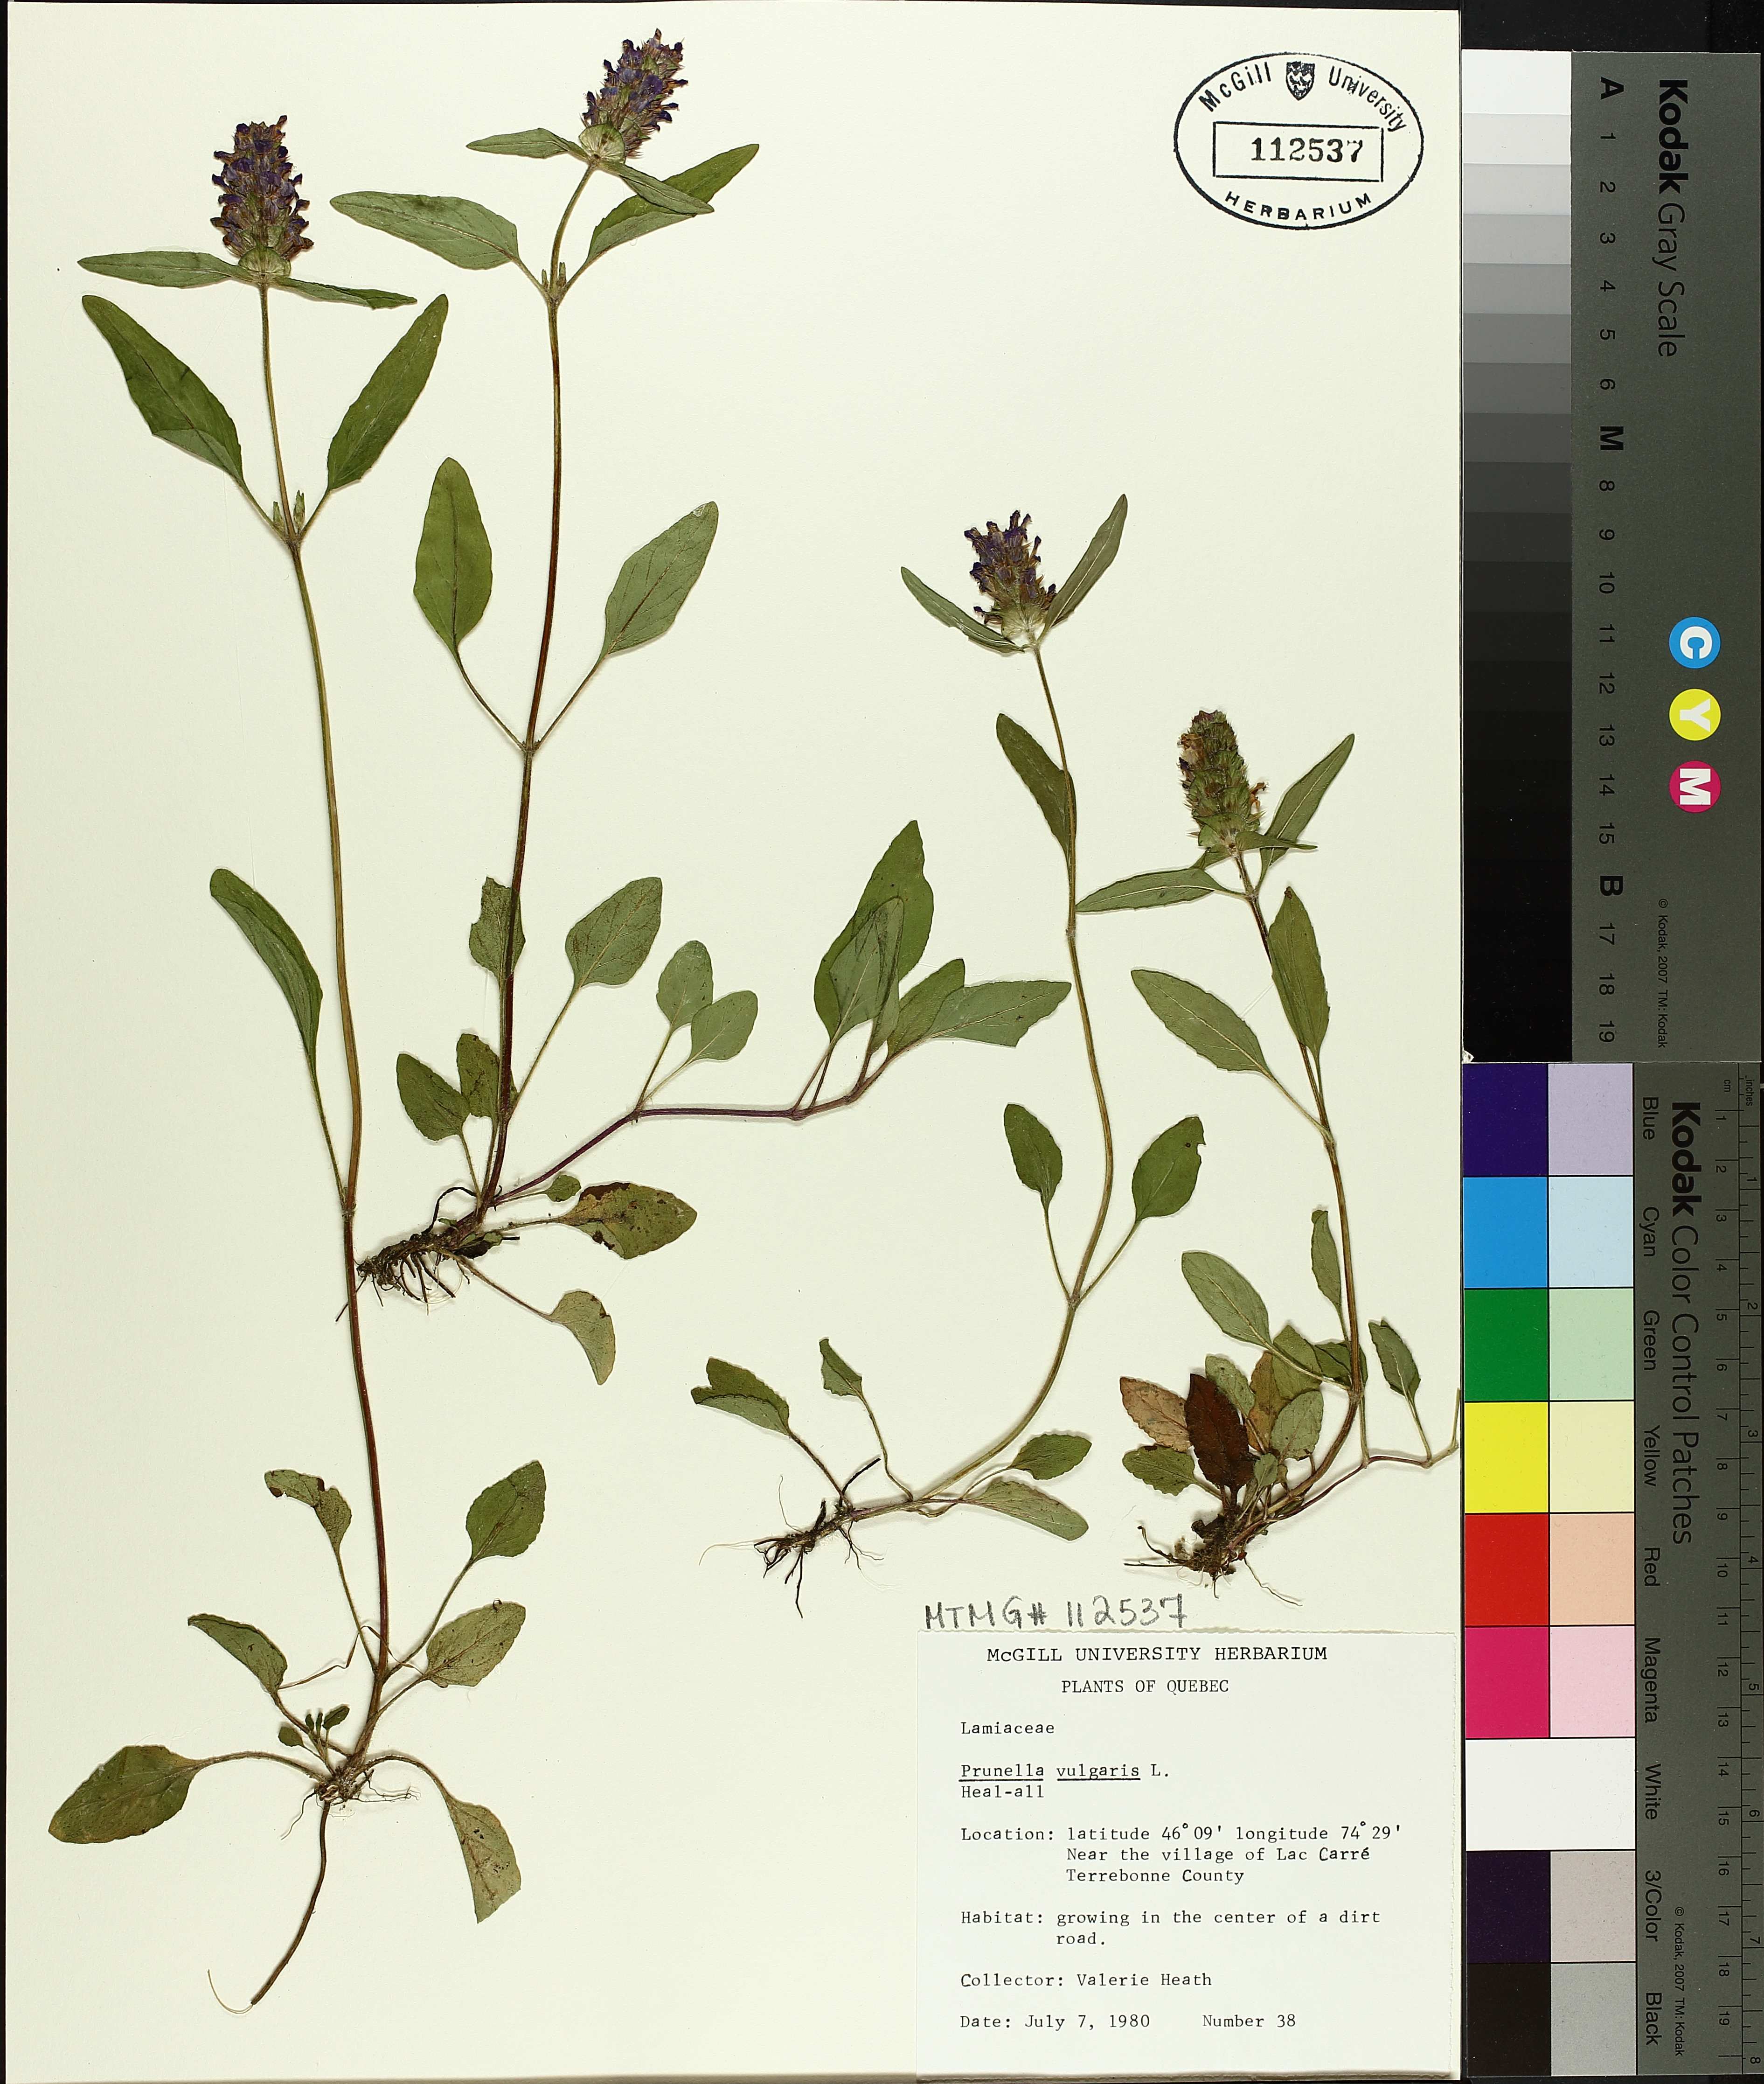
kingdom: Plantae
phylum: Tracheophyta
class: Magnoliopsida
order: Lamiales
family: Lamiaceae
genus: Prunella
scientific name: Prunella vulgaris
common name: Heal-all
